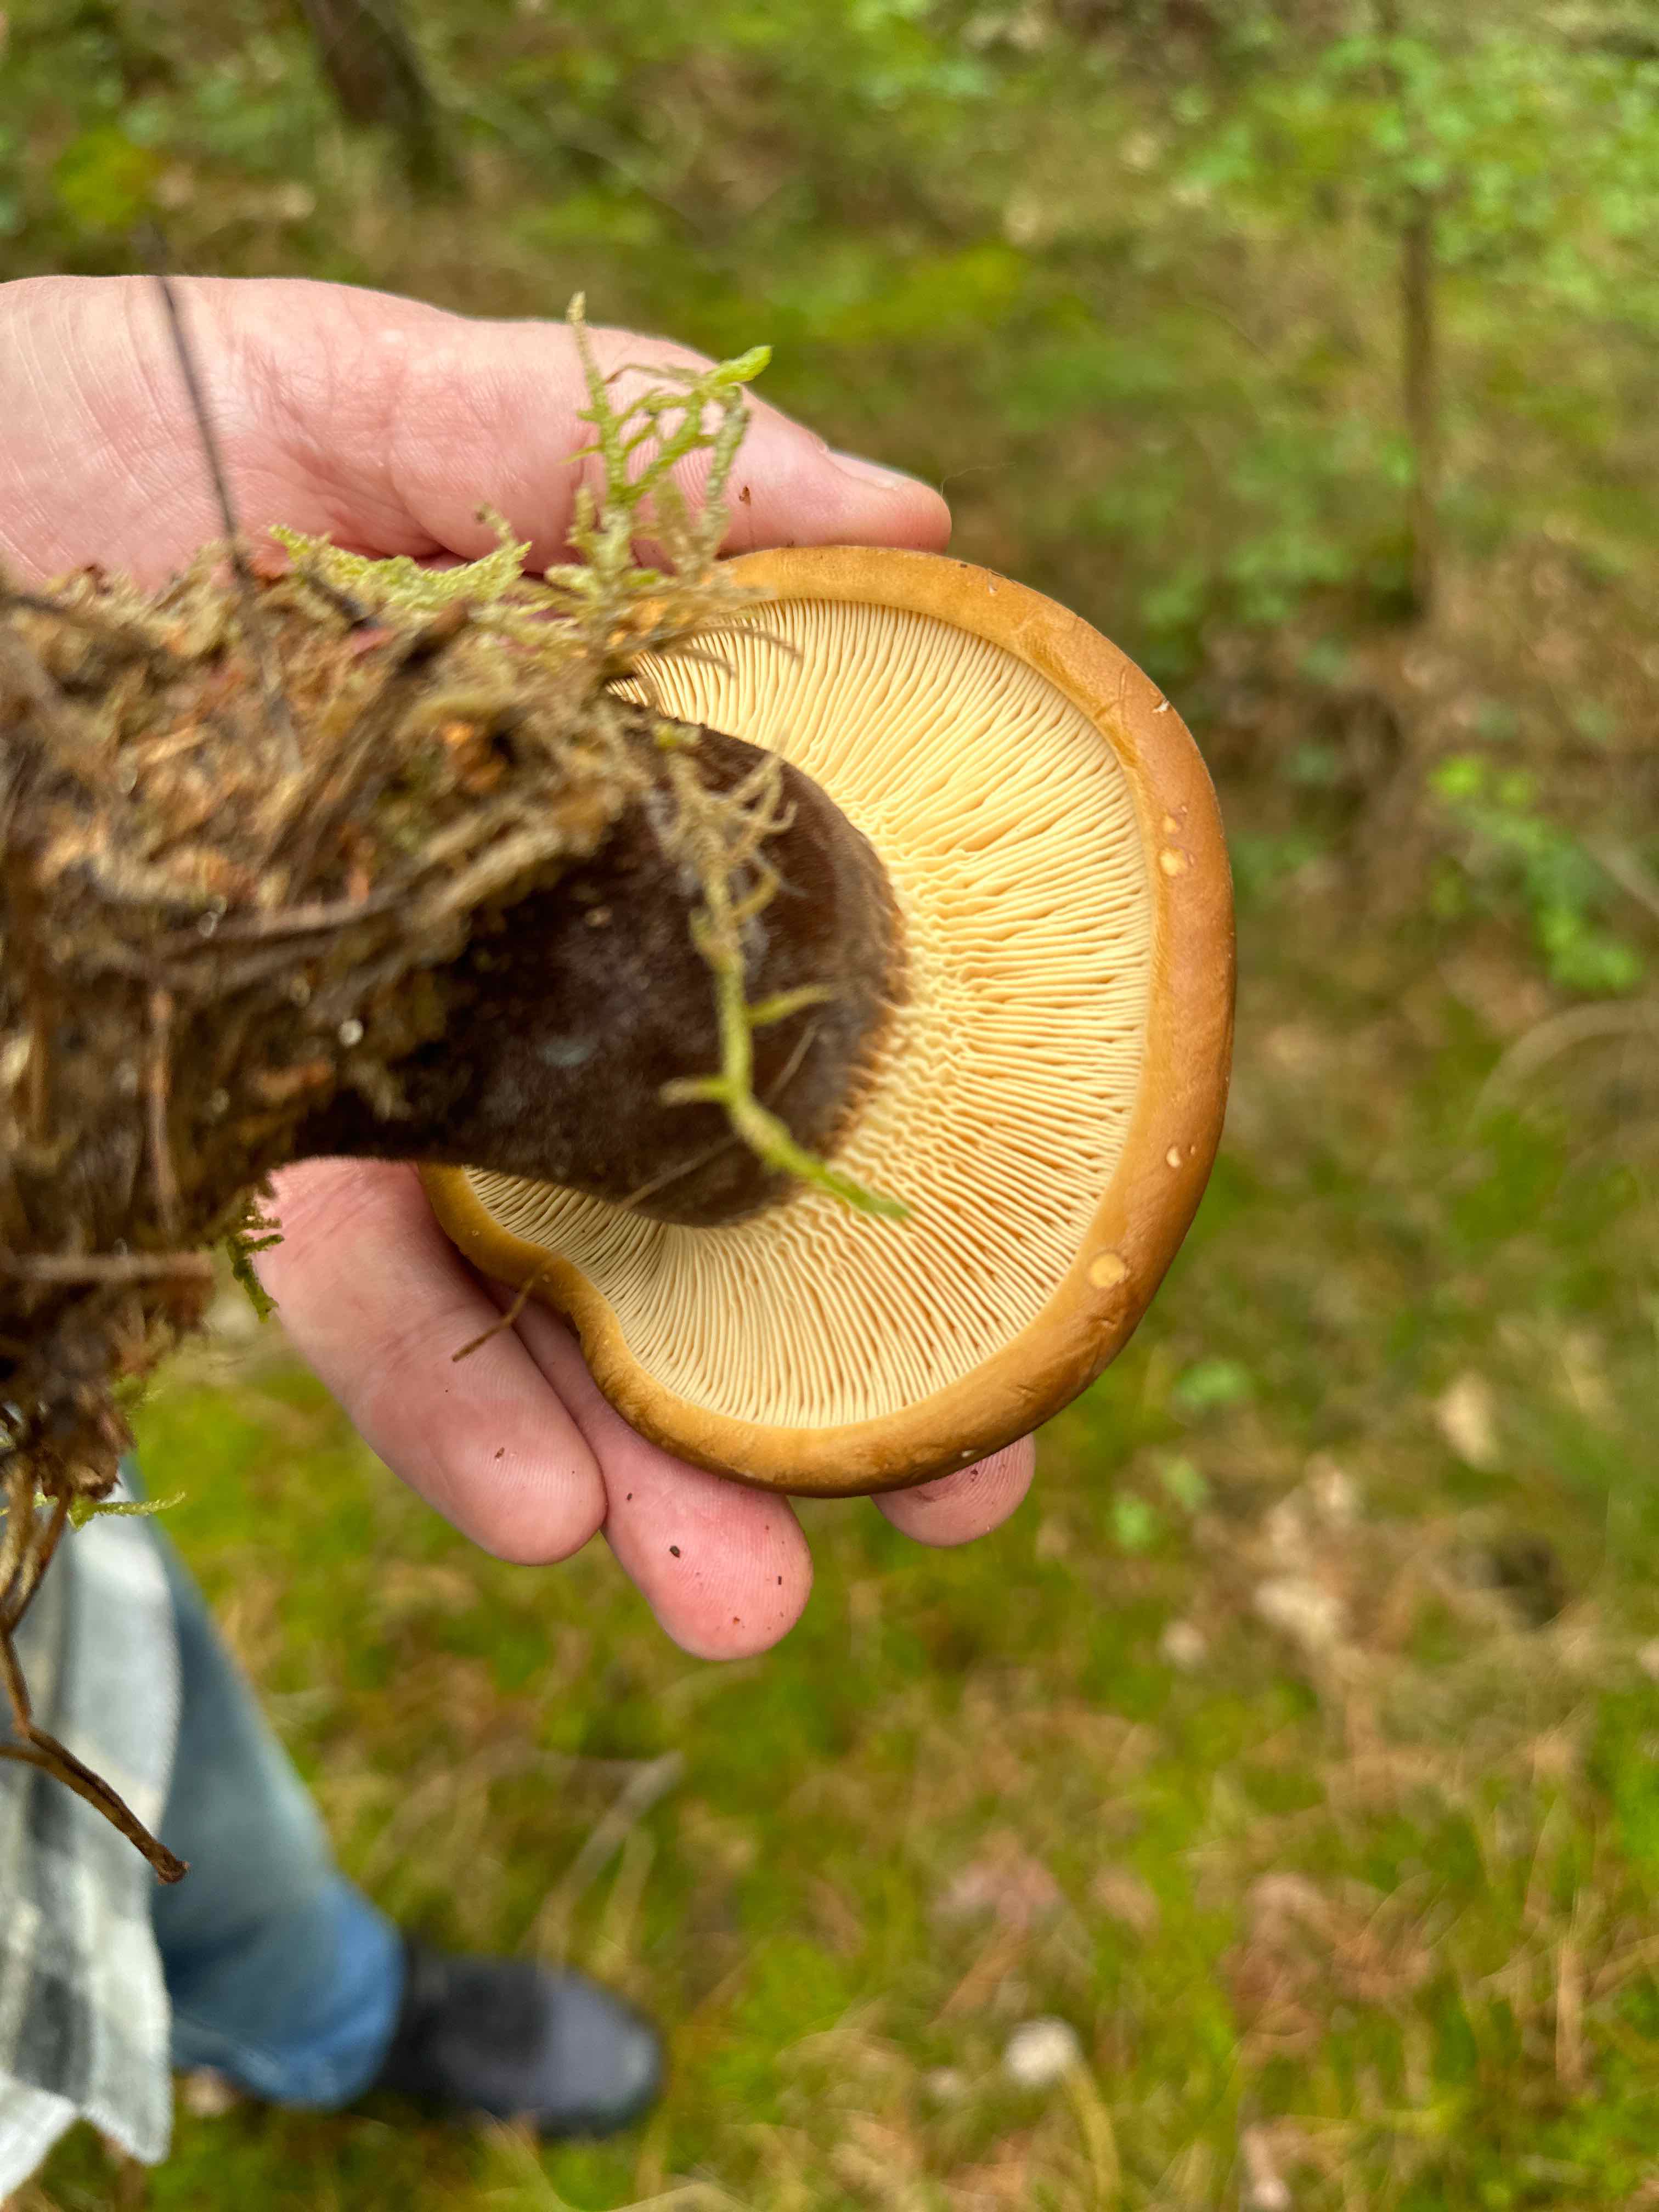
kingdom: Fungi
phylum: Basidiomycota
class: Agaricomycetes
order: Boletales
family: Tapinellaceae
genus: Tapinella
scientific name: Tapinella atrotomentosa
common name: sortfiltet viftesvamp
